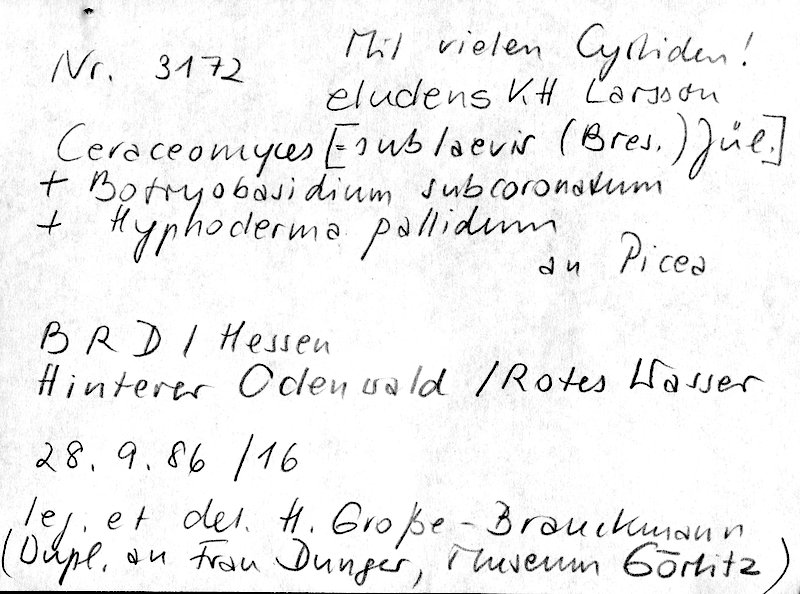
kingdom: Fungi
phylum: Basidiomycota
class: Agaricomycetes
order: Hymenochaetales
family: Rickenellaceae
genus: Peniophorella
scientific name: Peniophorella pallida
